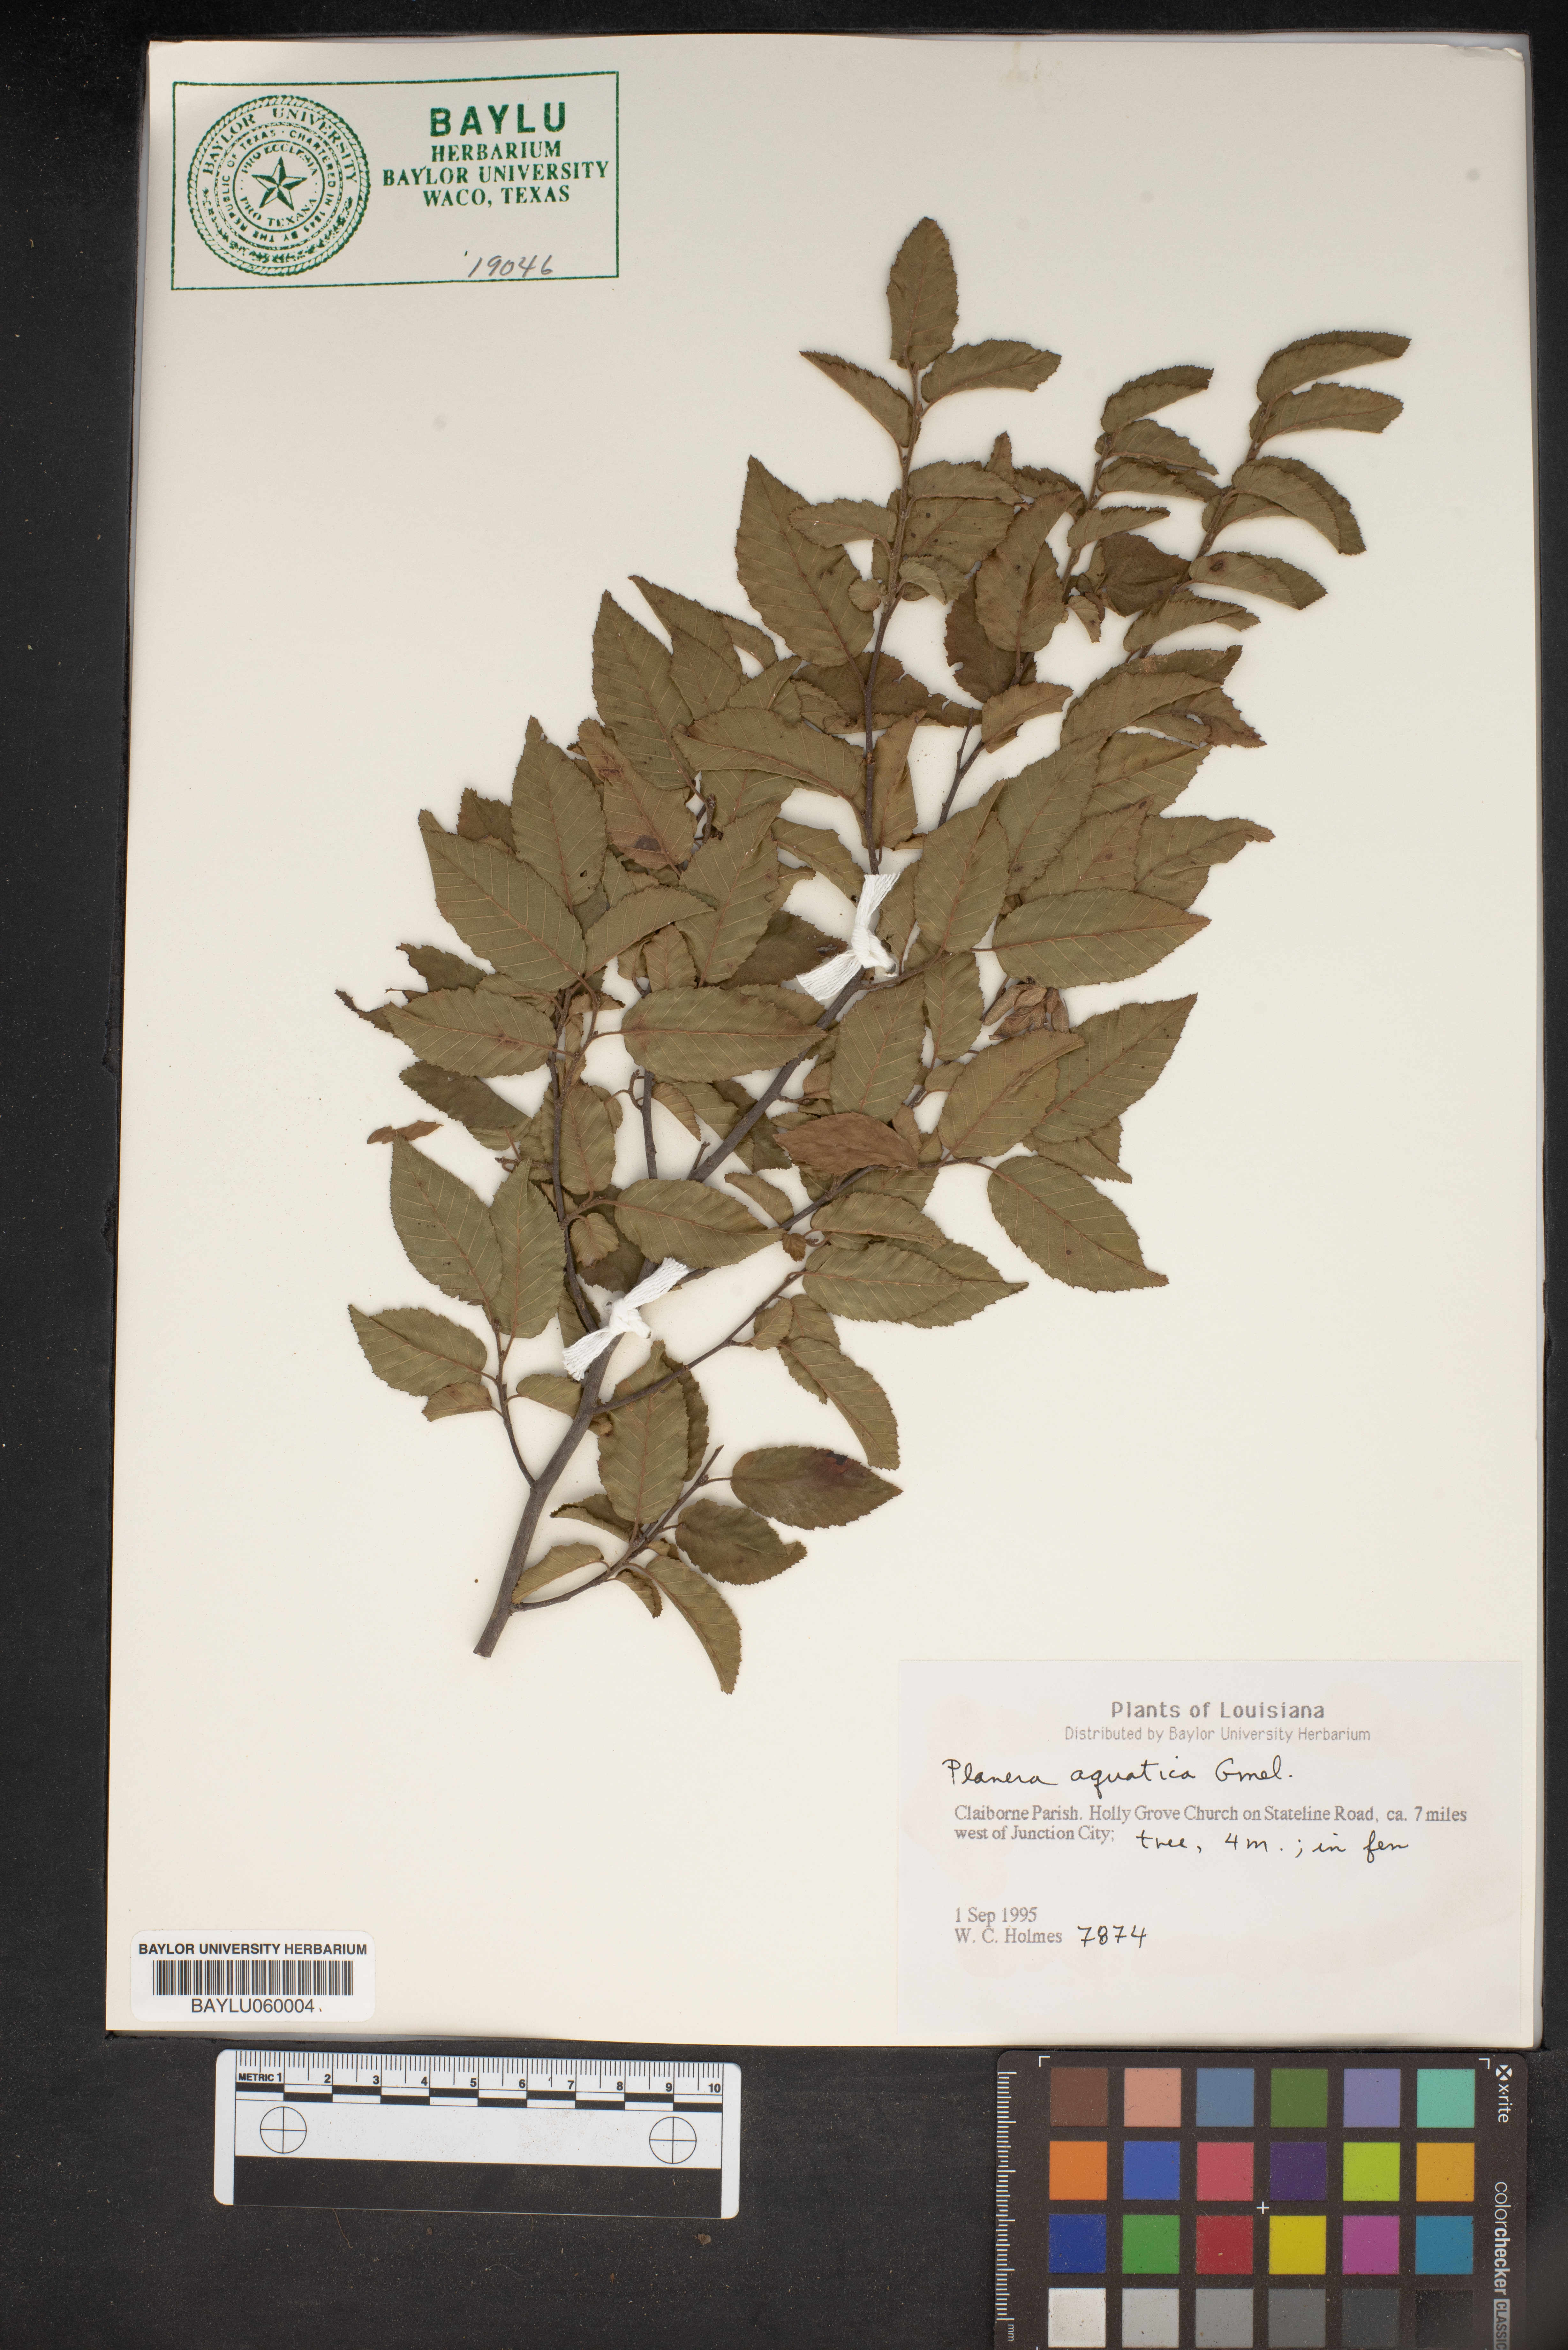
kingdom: Plantae
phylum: Tracheophyta
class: Magnoliopsida
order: Rosales
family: Ulmaceae
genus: Planera
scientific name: Planera aquatica
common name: Water-elm
